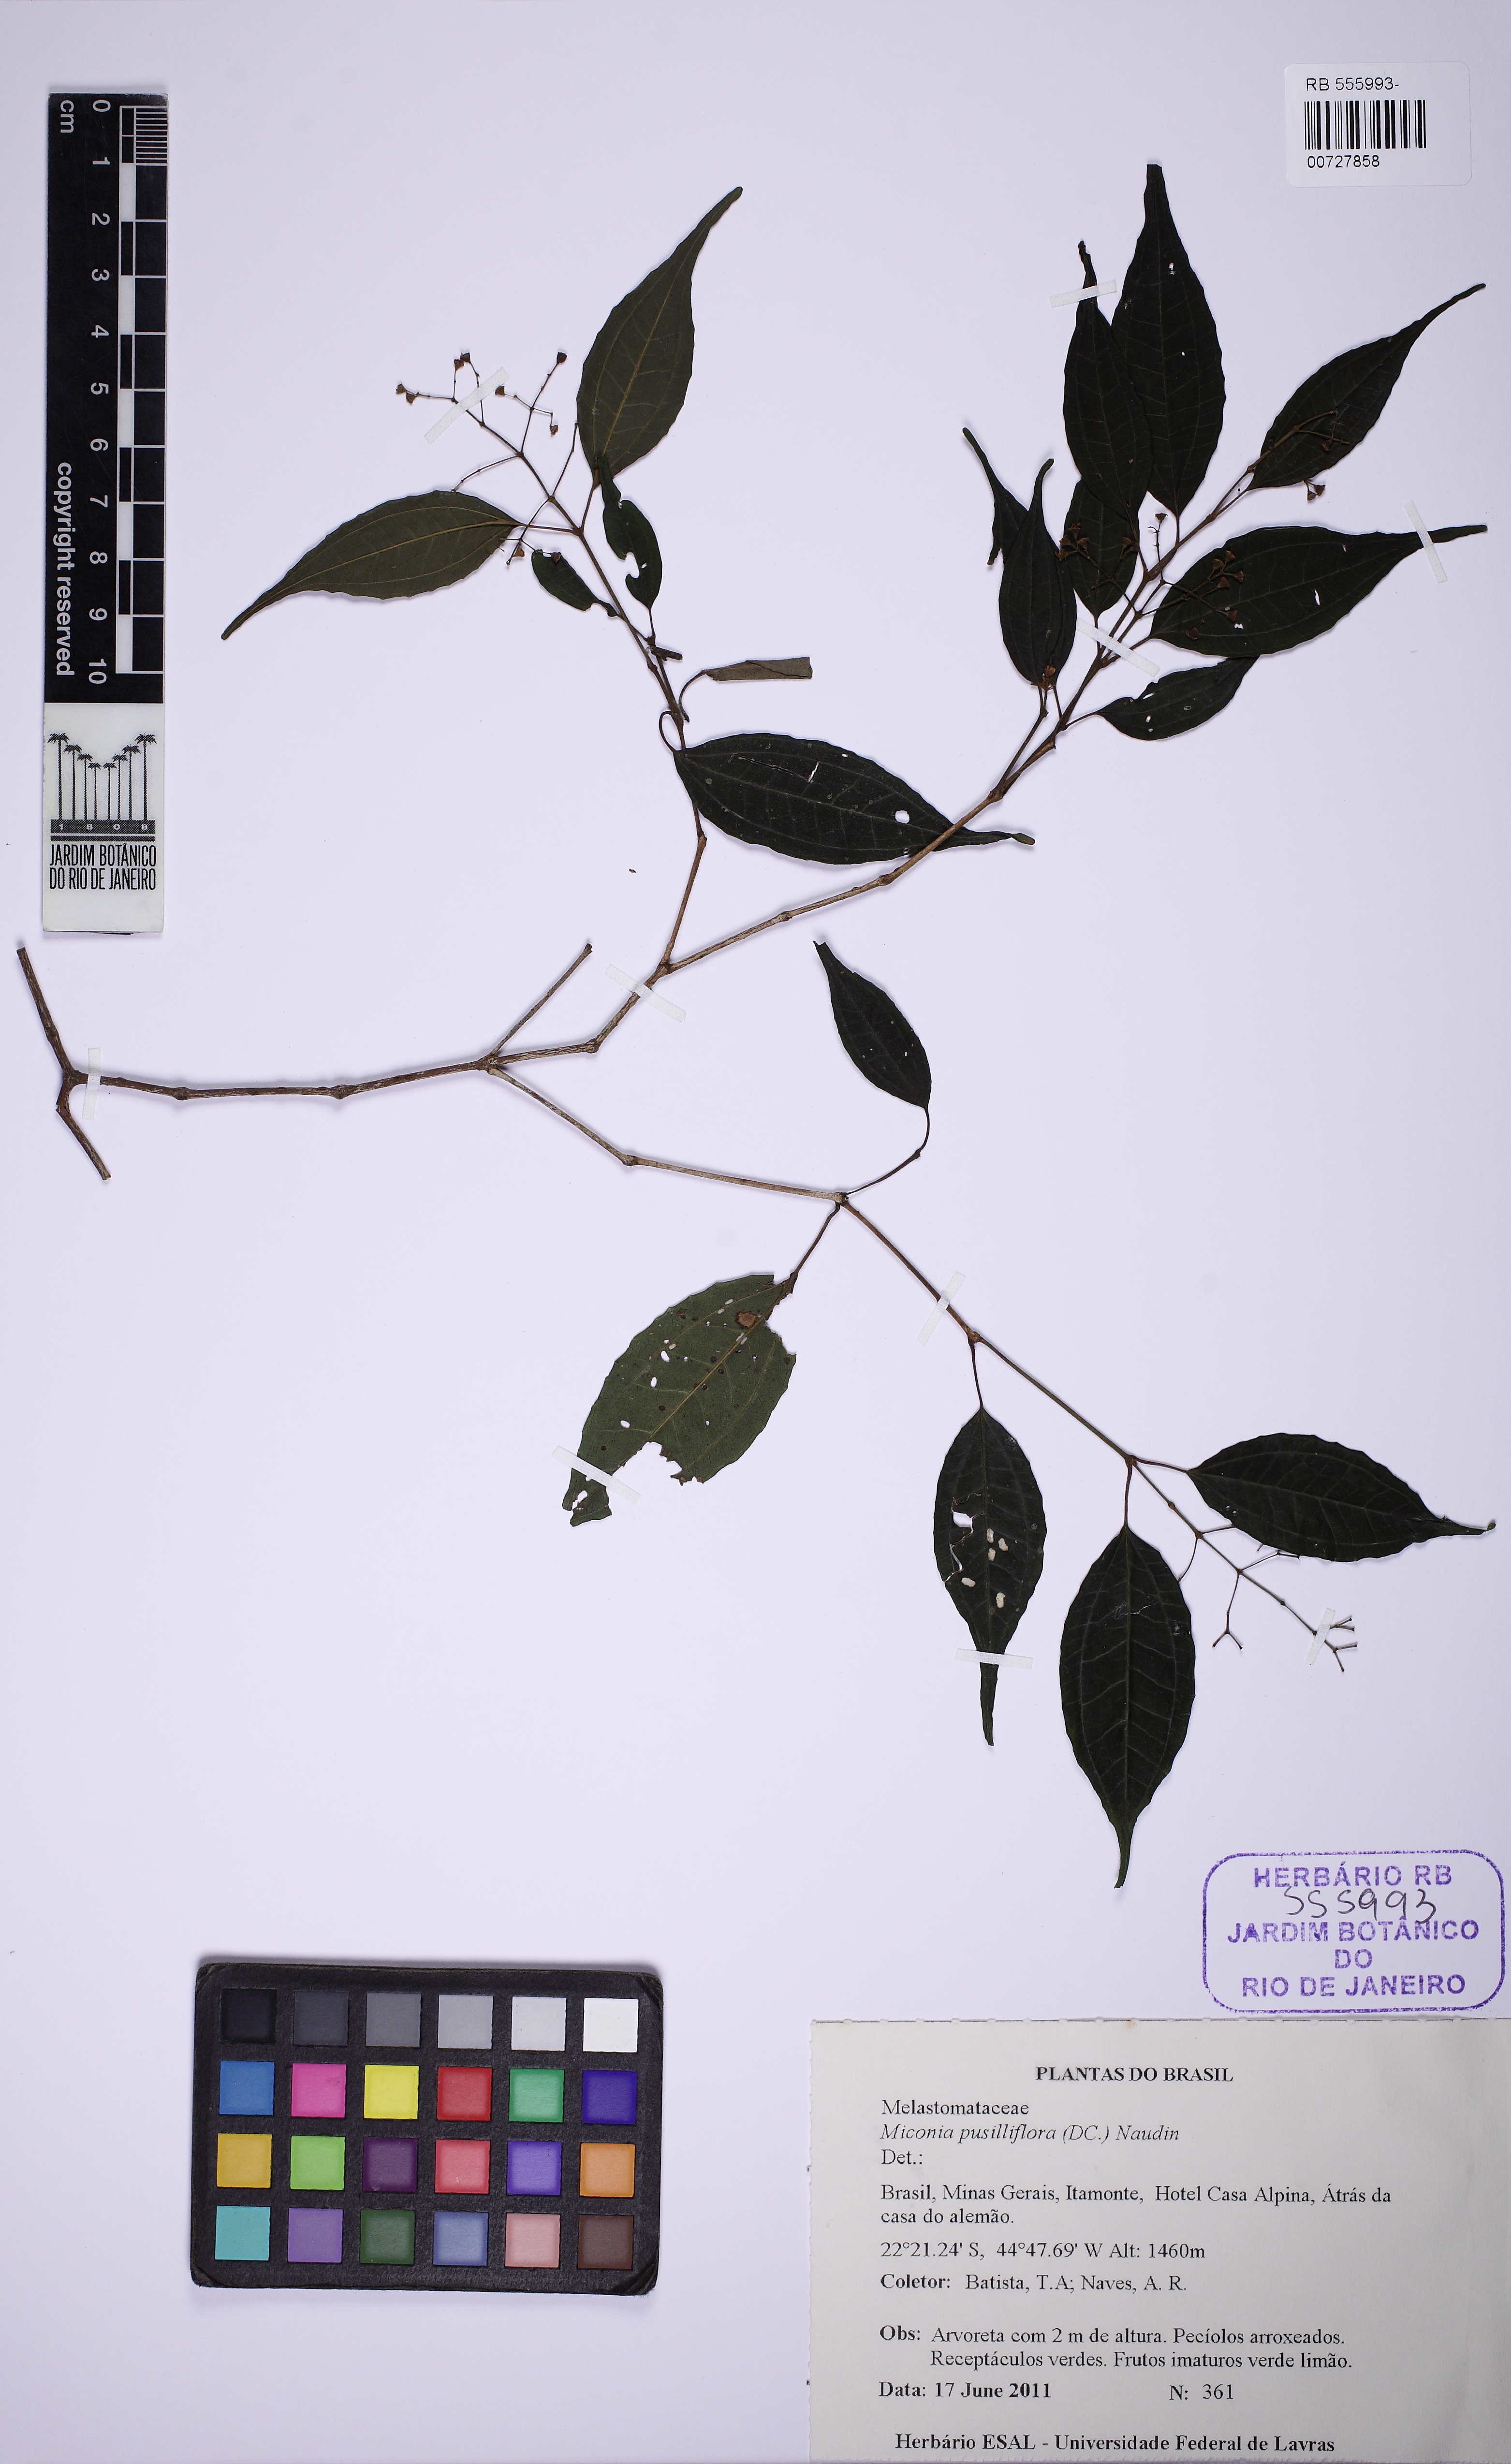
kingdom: Plantae
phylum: Tracheophyta
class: Magnoliopsida
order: Myrtales
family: Melastomataceae
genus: Miconia
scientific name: Miconia pusilliflora
